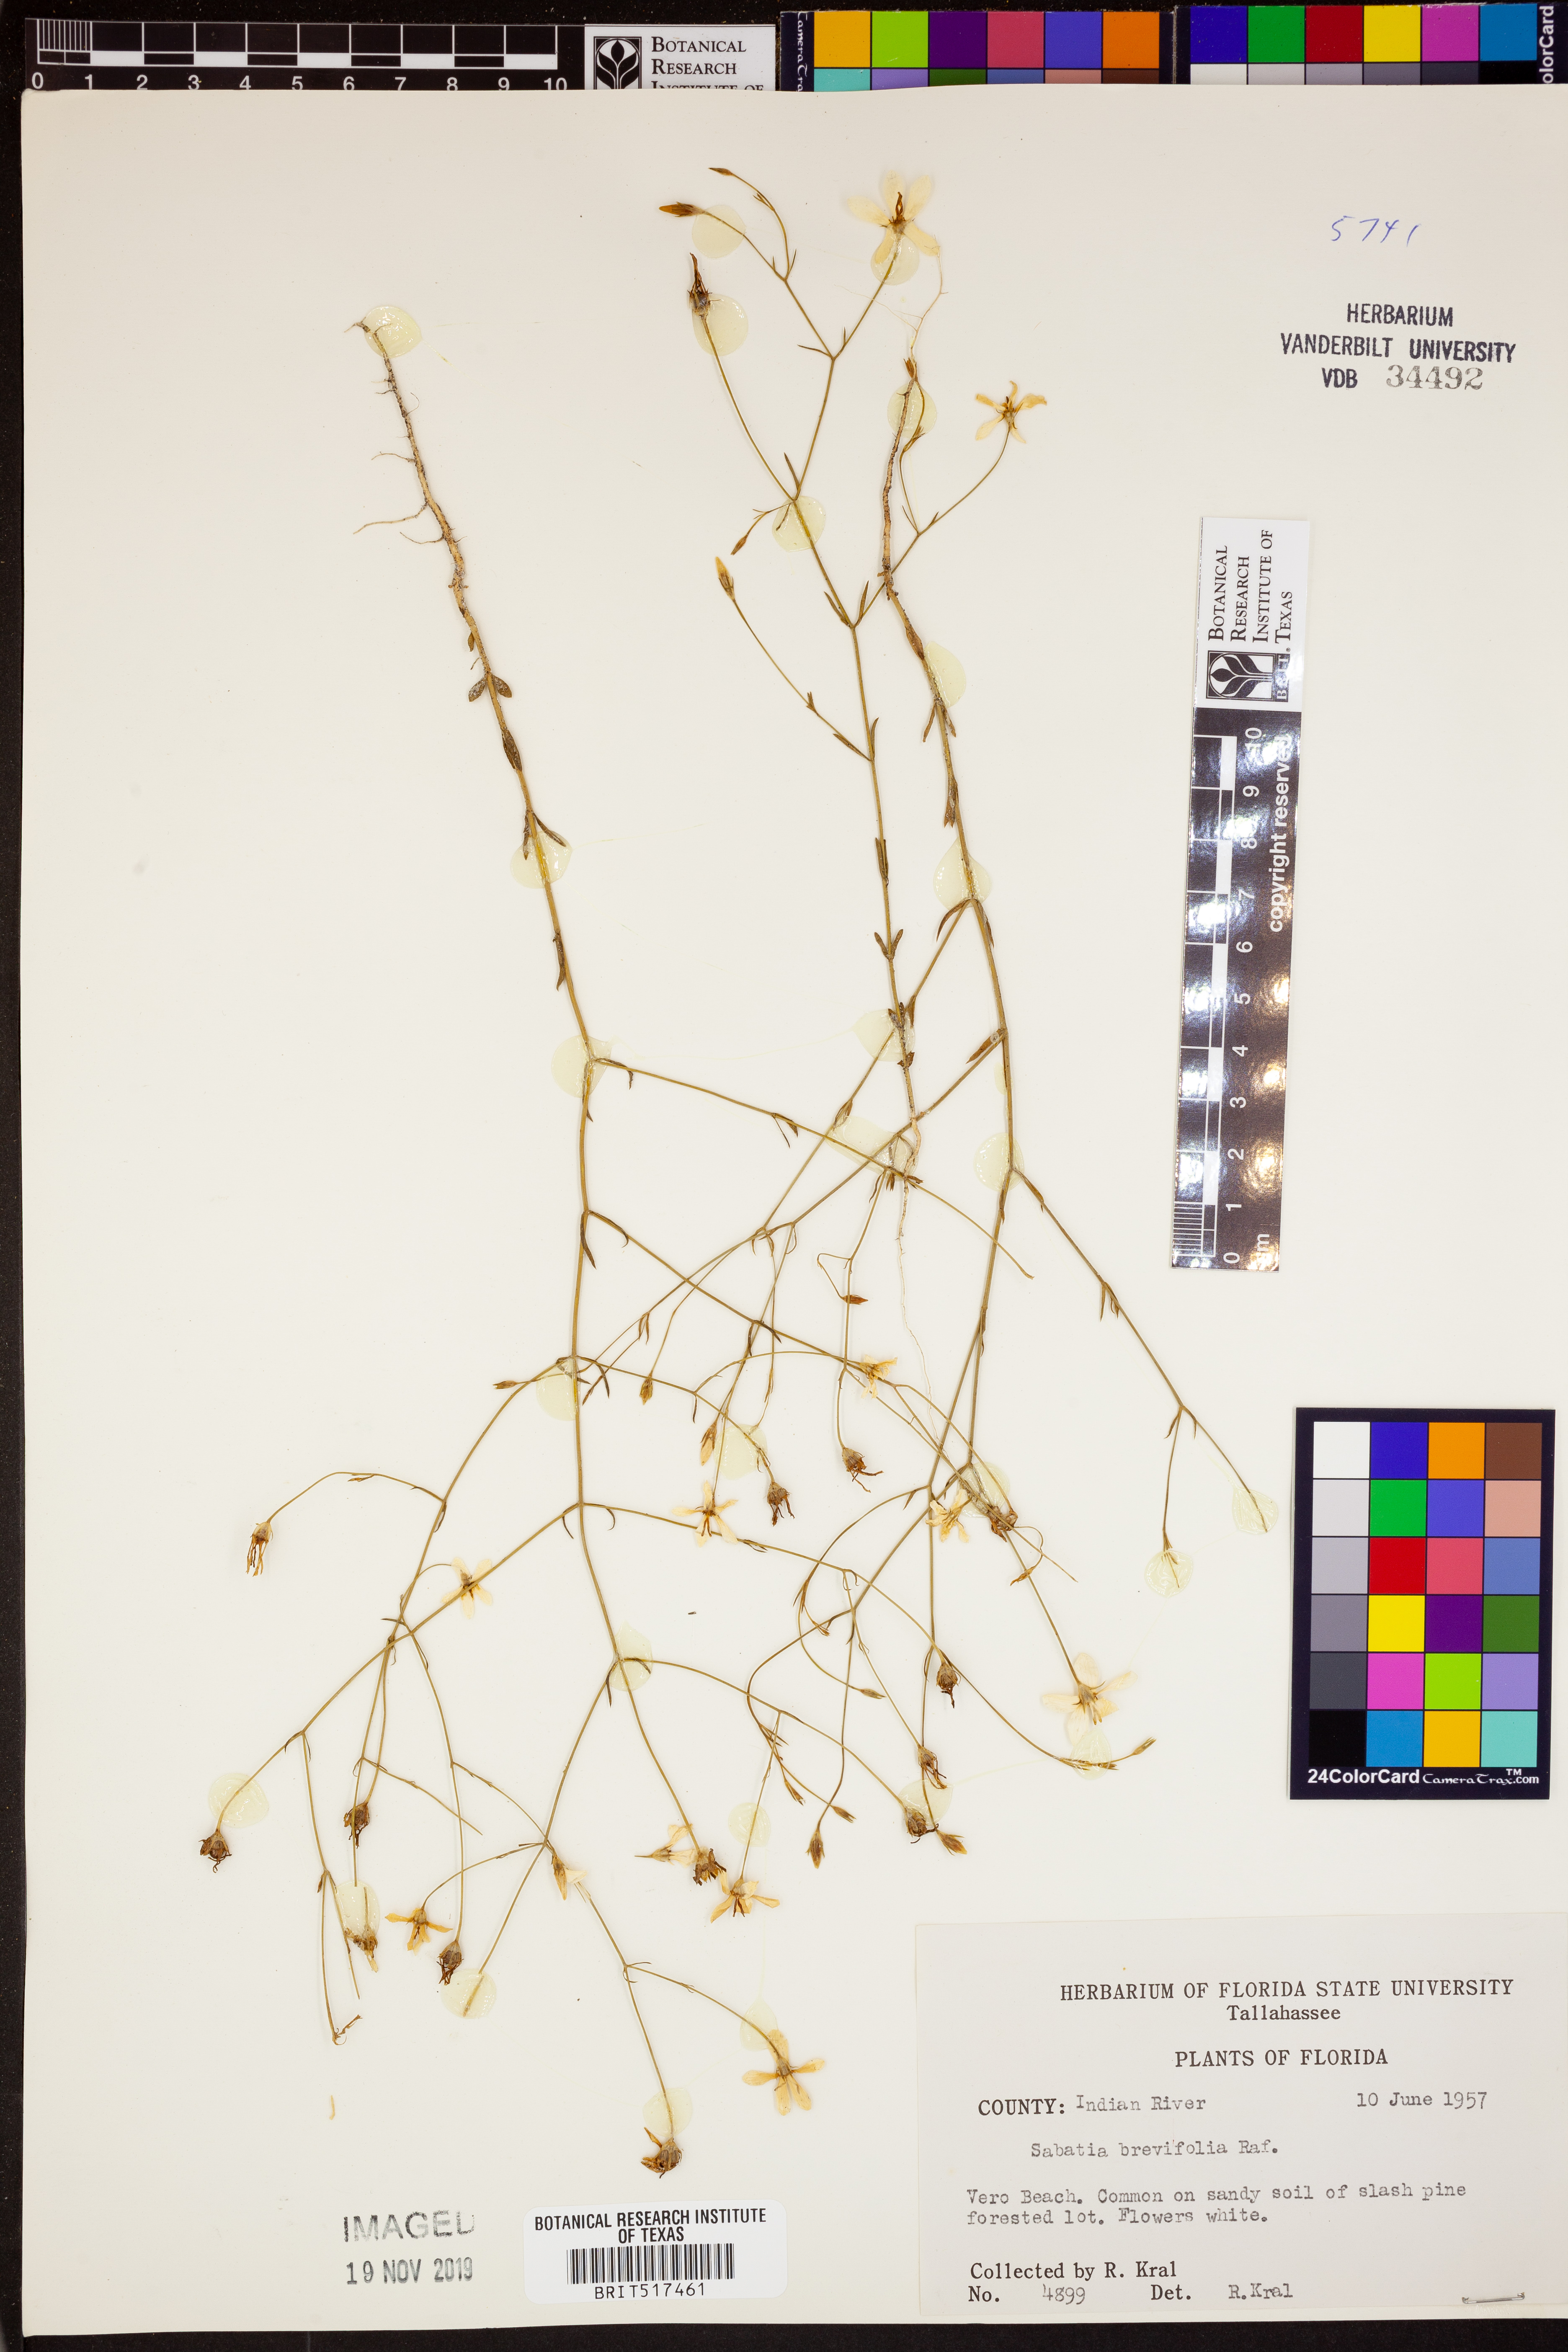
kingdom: Plantae
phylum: Tracheophyta
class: Magnoliopsida
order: Gentianales
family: Gentianaceae
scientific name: Gentianaceae
